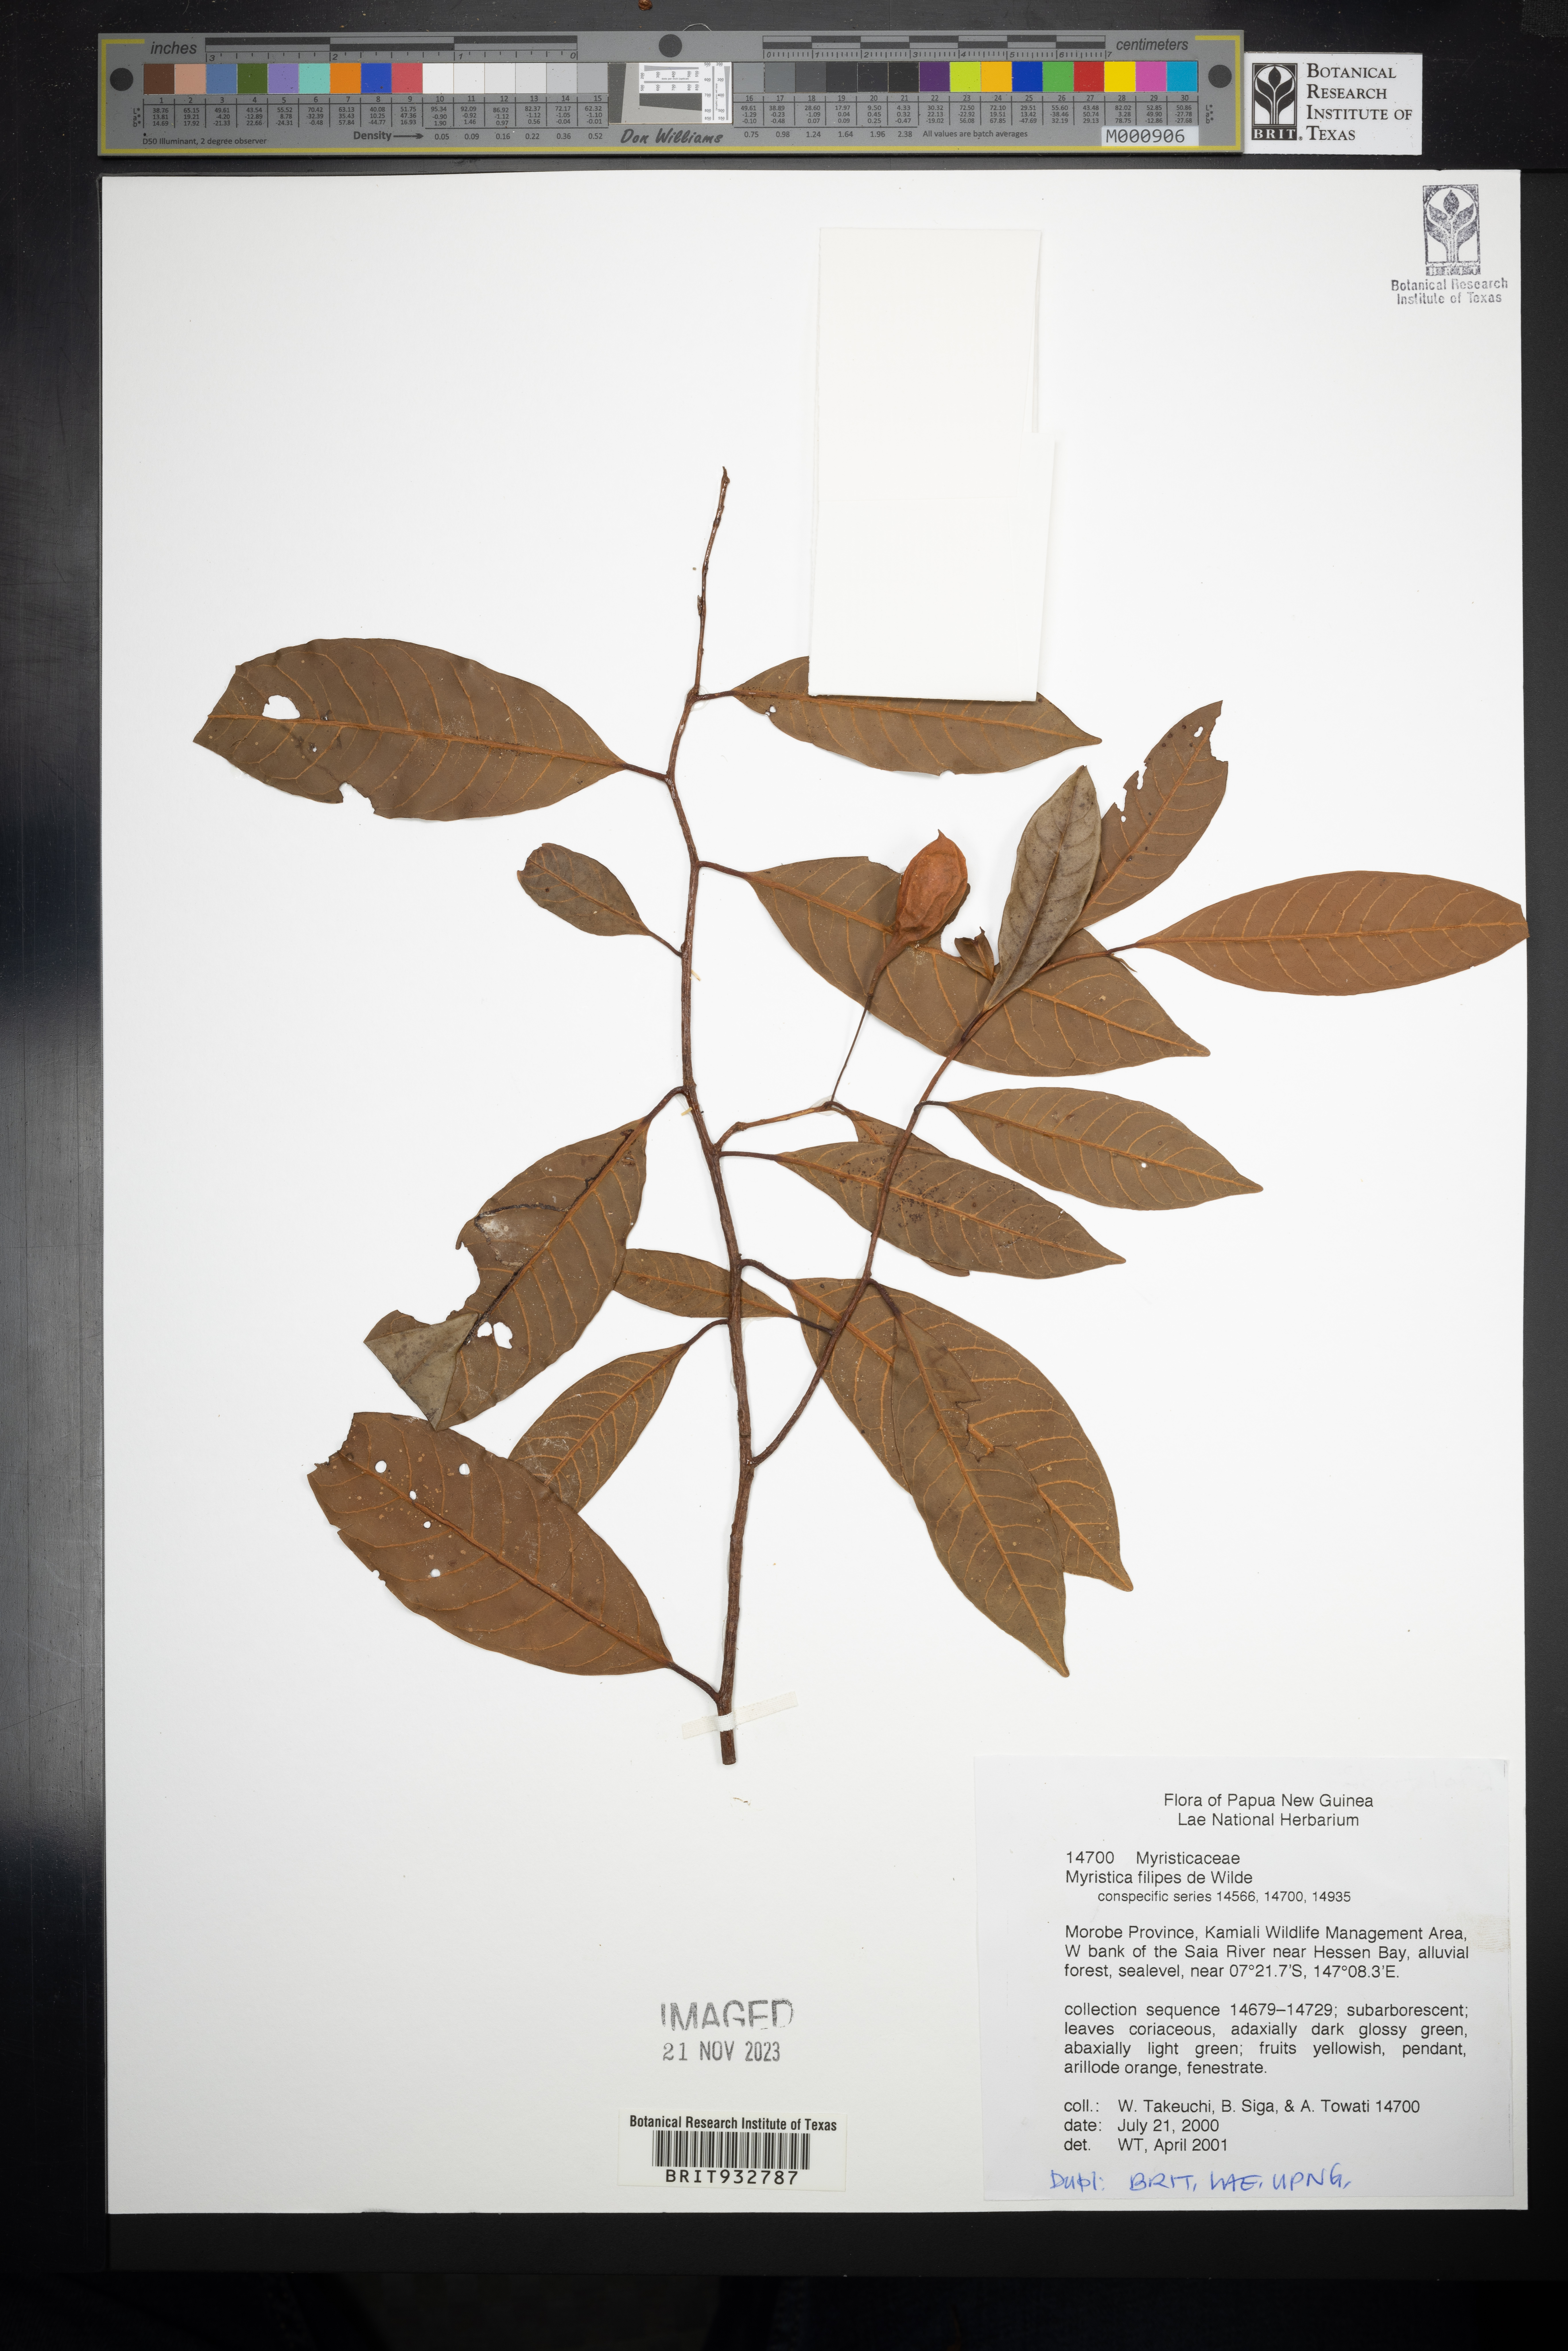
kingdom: Plantae
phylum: Tracheophyta
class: Magnoliopsida
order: Magnoliales
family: Myristicaceae
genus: Myristica
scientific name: Myristica
